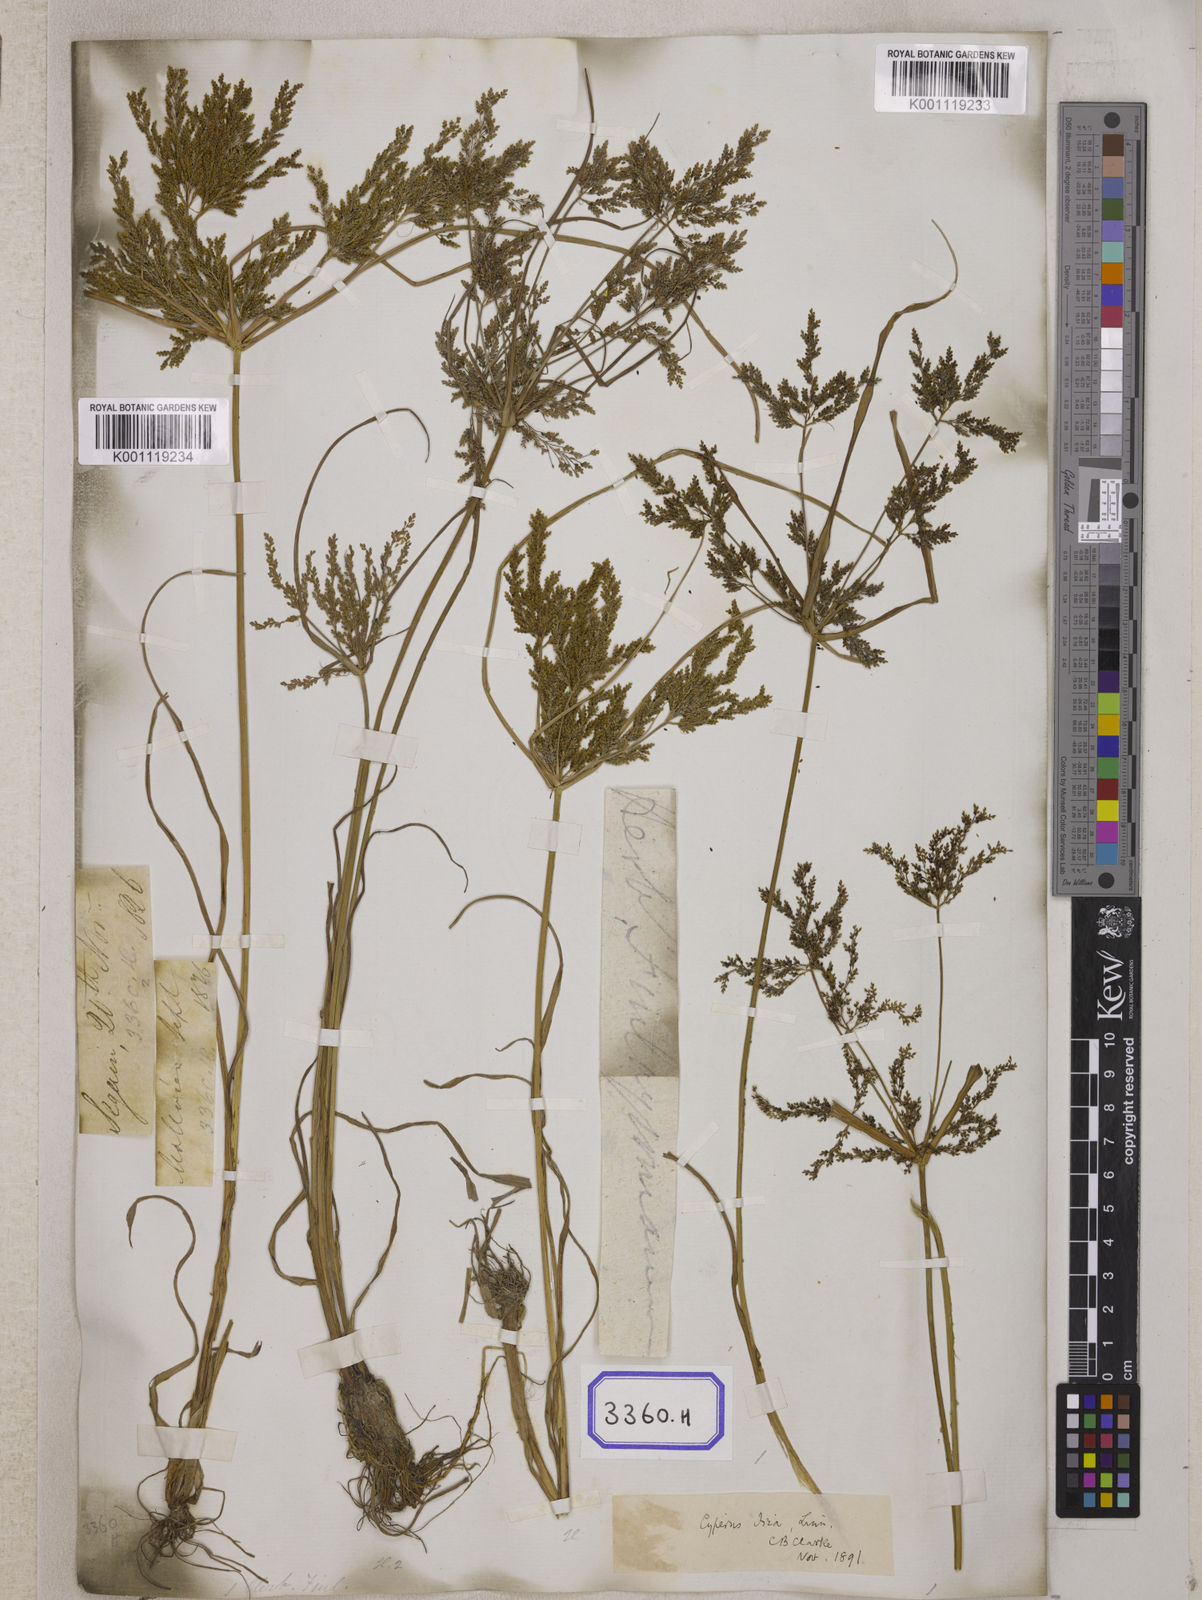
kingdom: Plantae
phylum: Tracheophyta
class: Liliopsida
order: Poales
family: Cyperaceae
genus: Cyperus
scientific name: Cyperus
